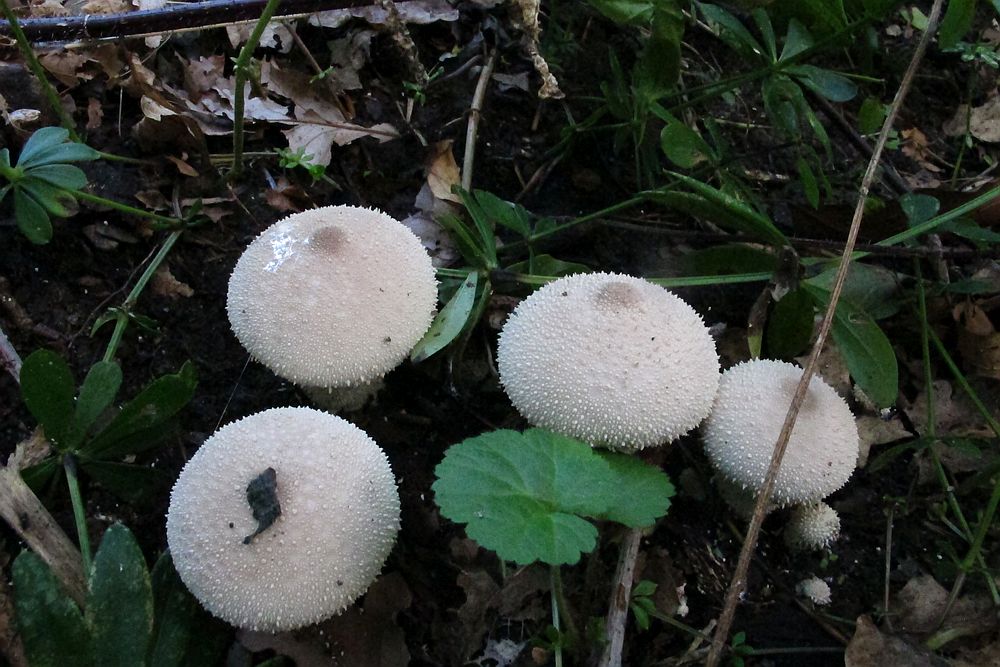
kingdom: Fungi
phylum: Basidiomycota
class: Agaricomycetes
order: Agaricales
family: Lycoperdaceae
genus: Lycoperdon
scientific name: Lycoperdon perlatum
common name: krystal-støvbold
